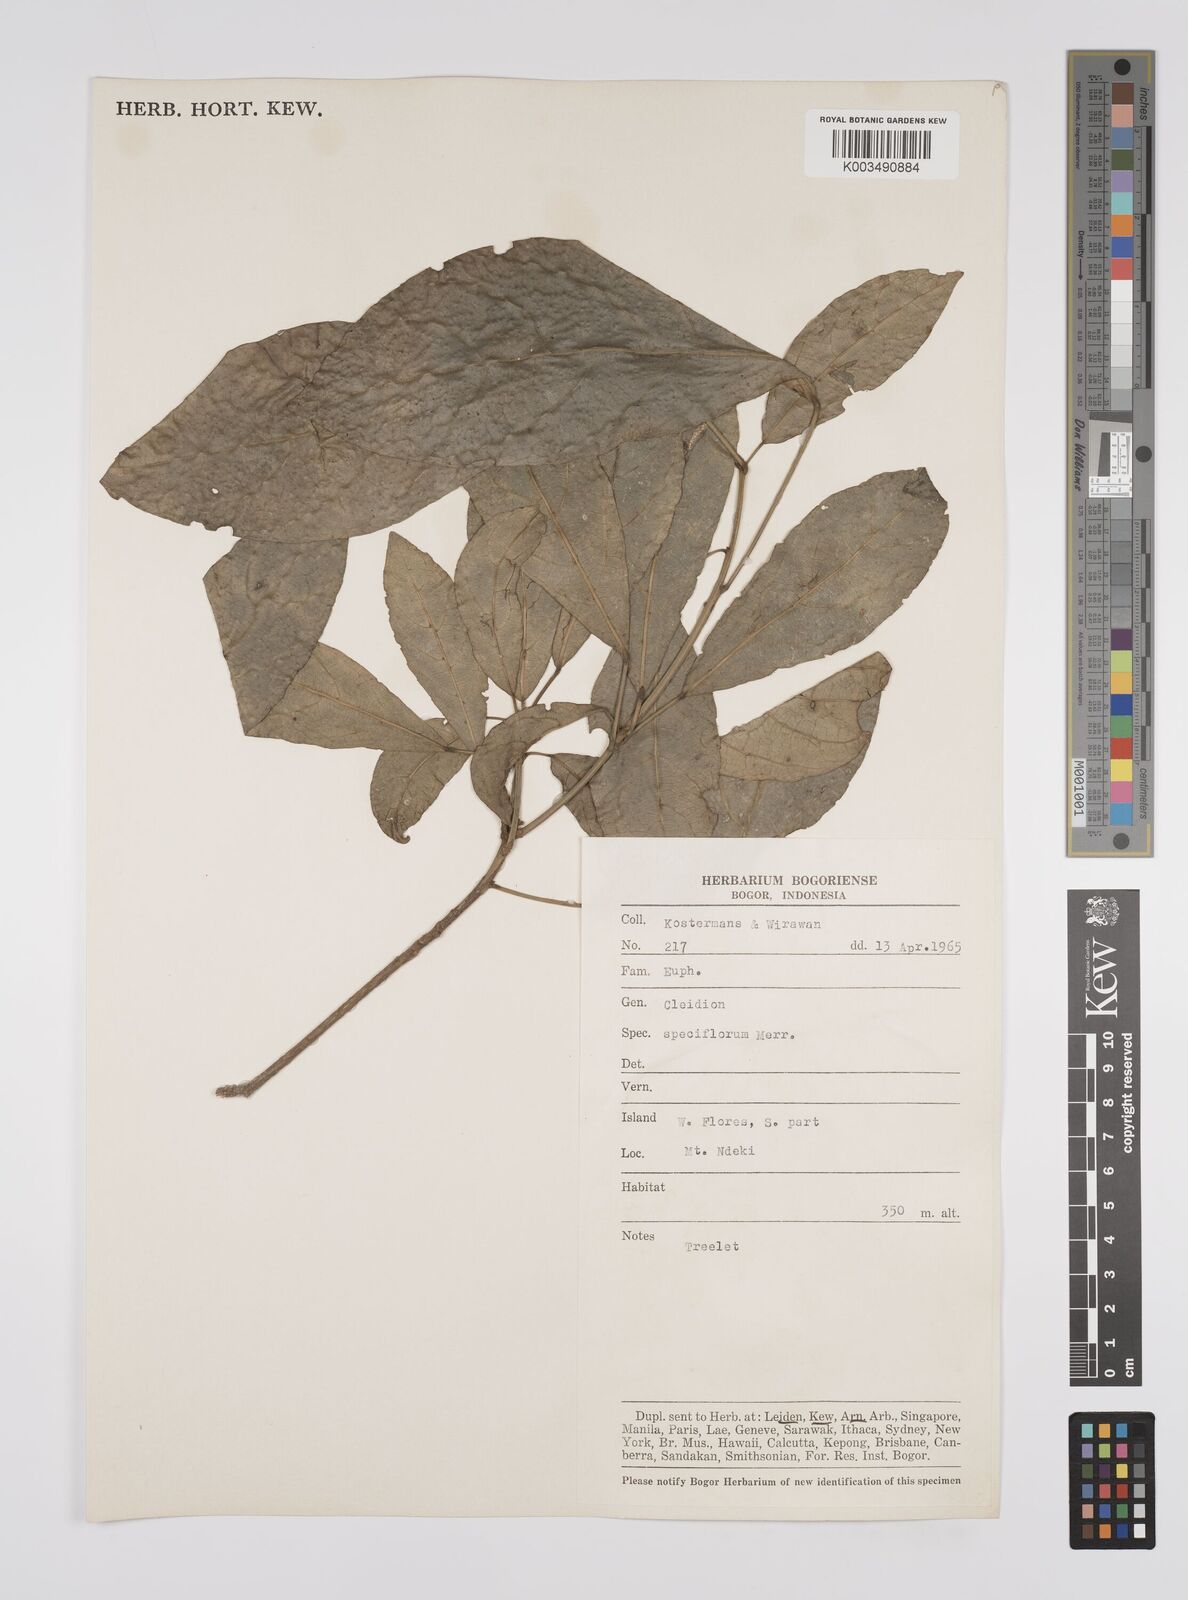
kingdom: Plantae
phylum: Tracheophyta
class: Magnoliopsida
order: Malpighiales
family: Euphorbiaceae
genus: Acalypha
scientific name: Acalypha spiciflora
